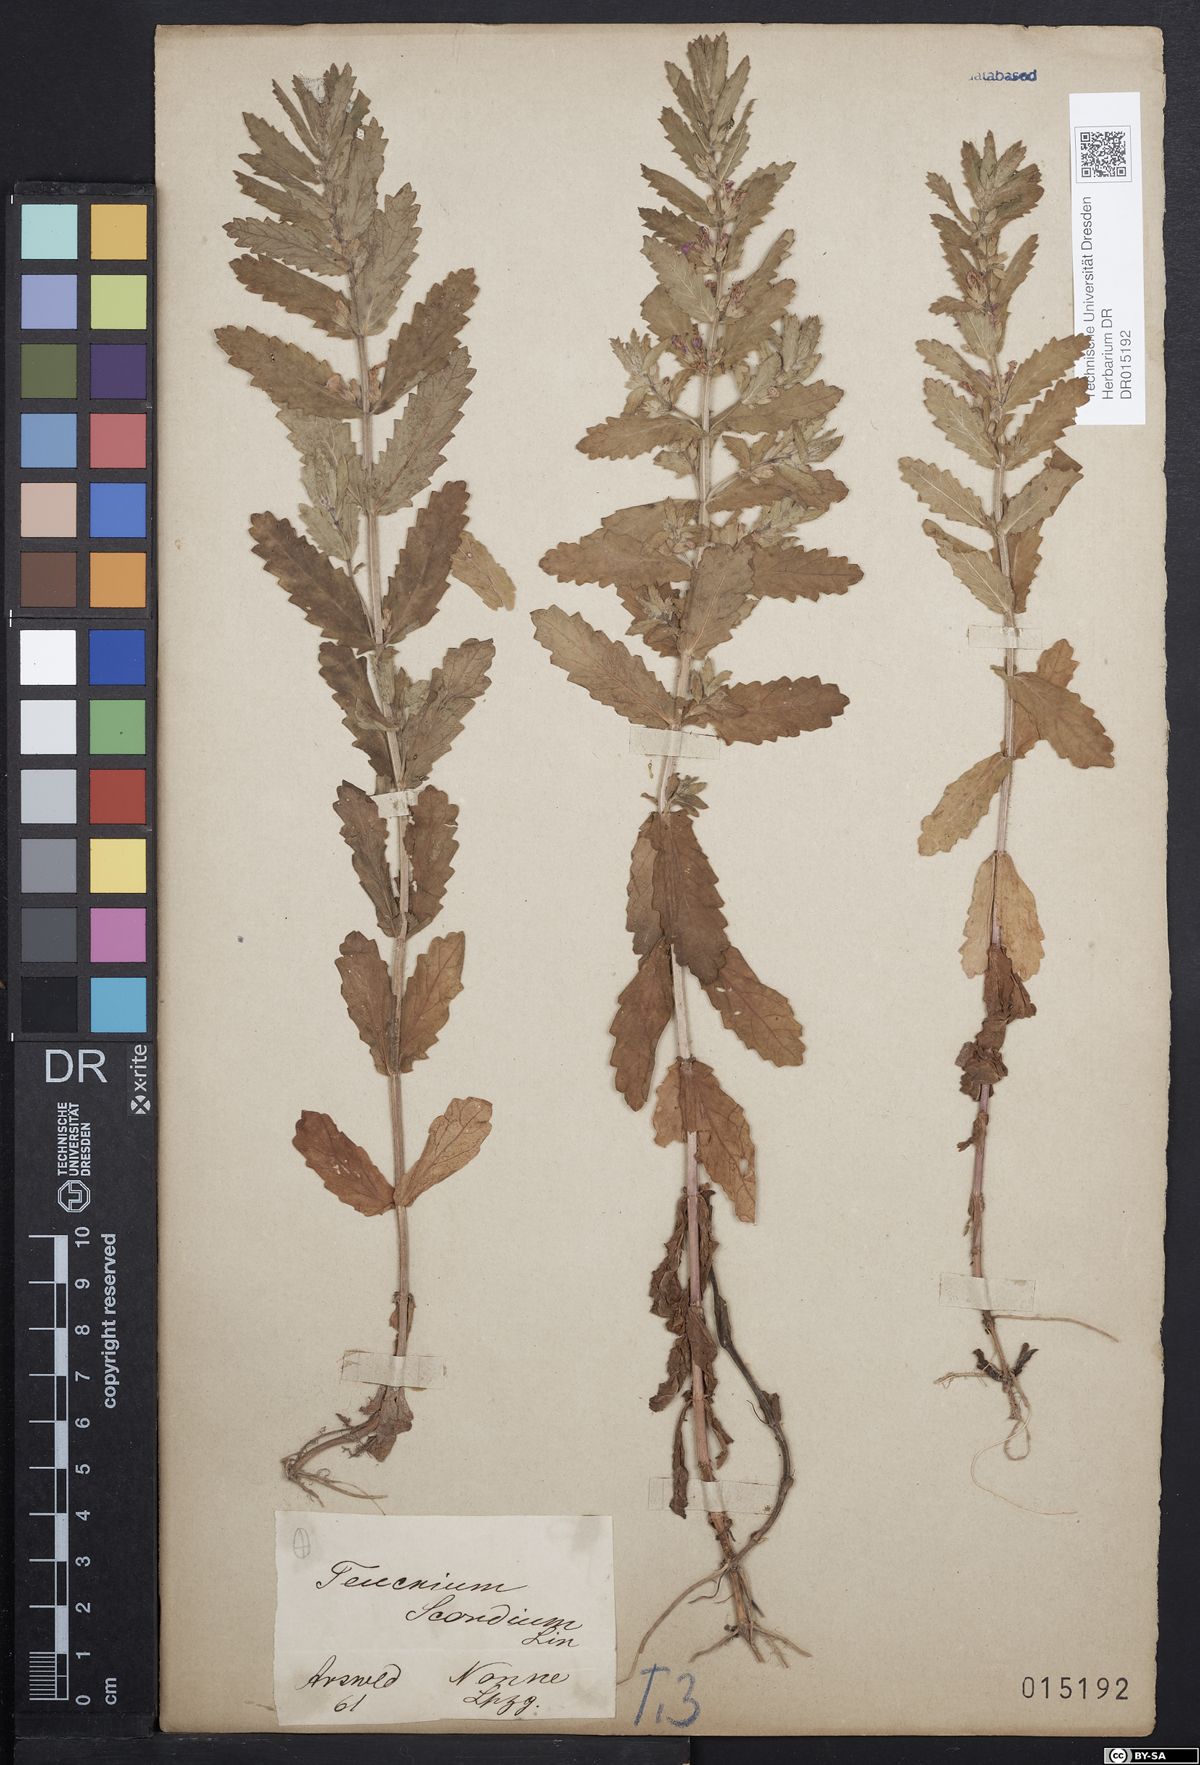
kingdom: Plantae
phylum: Tracheophyta
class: Magnoliopsida
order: Lamiales
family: Lamiaceae
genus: Teucrium
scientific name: Teucrium scordium
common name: Water germander
